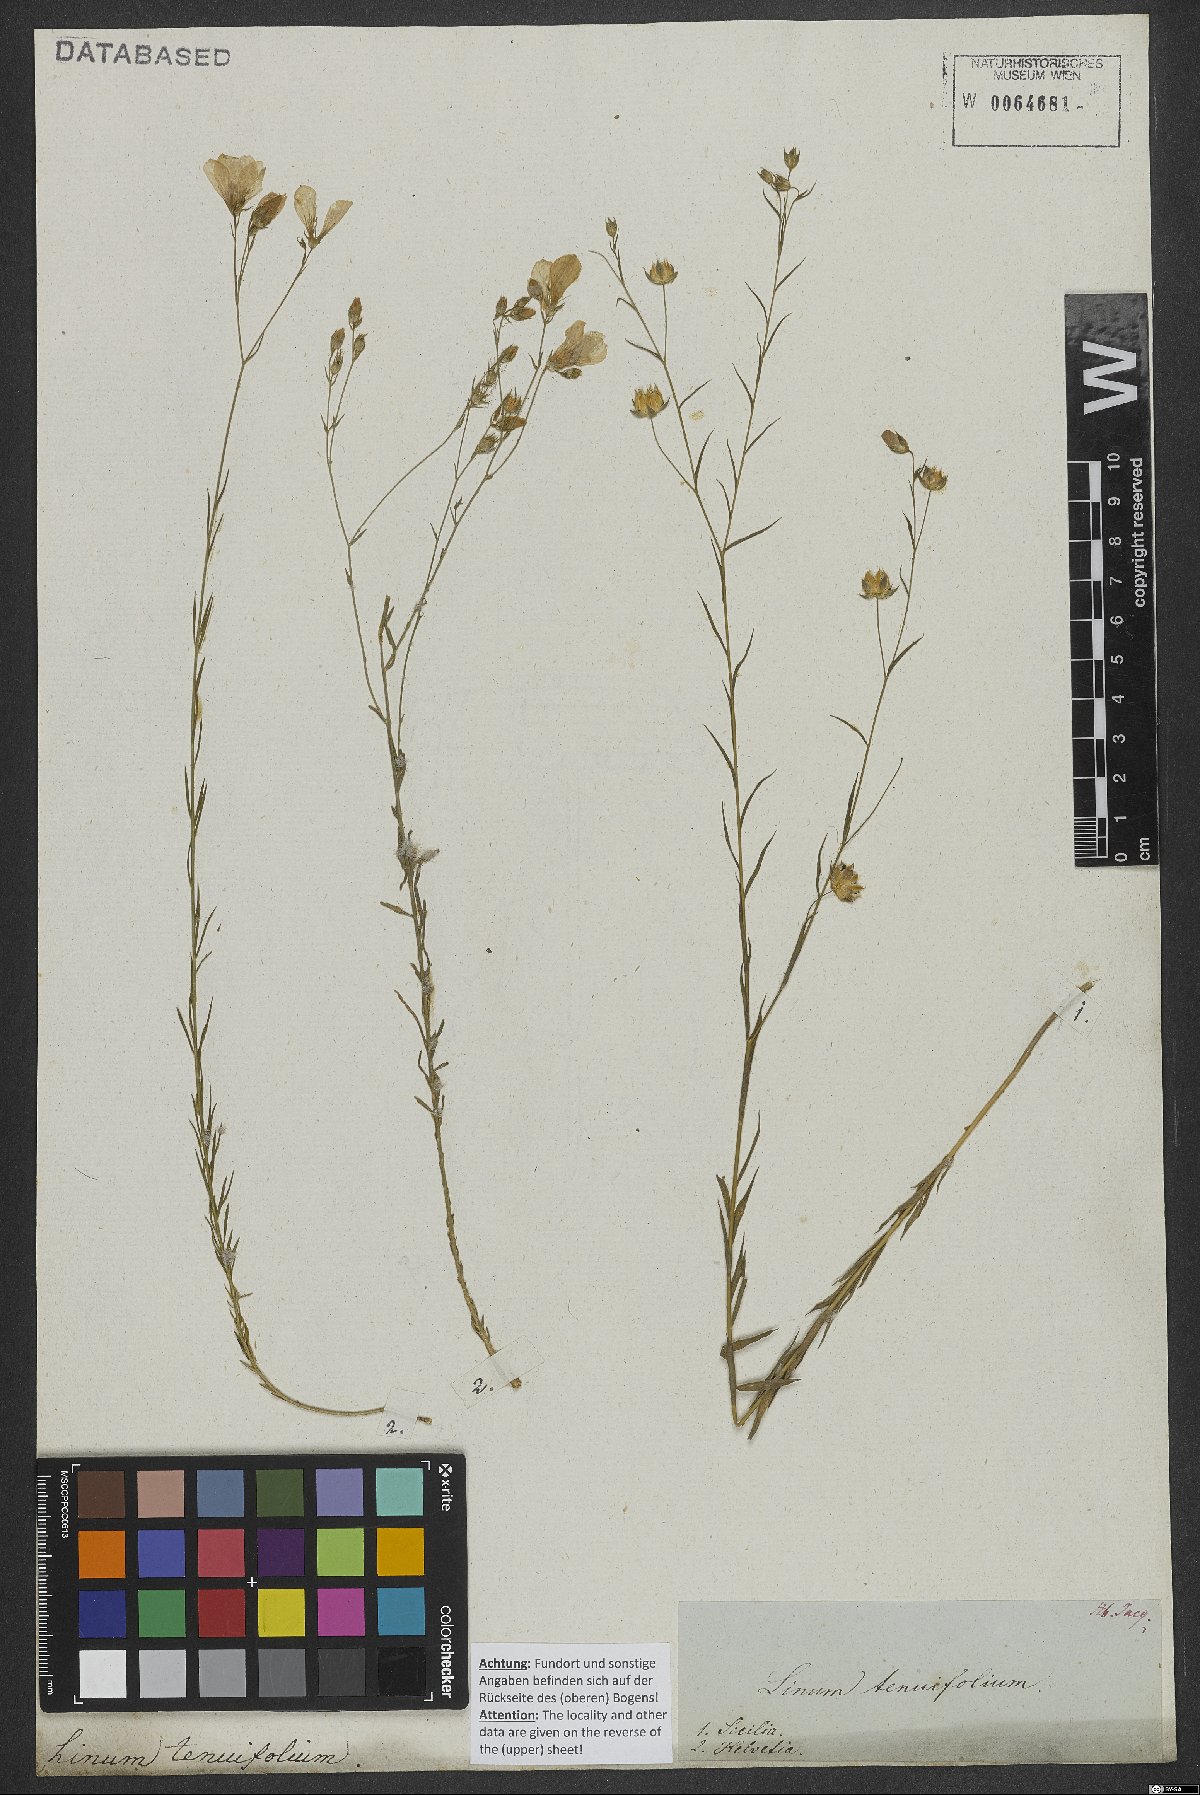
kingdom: Plantae
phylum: Tracheophyta
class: Magnoliopsida
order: Malpighiales
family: Linaceae
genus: Linum
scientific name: Linum tenuifolium
